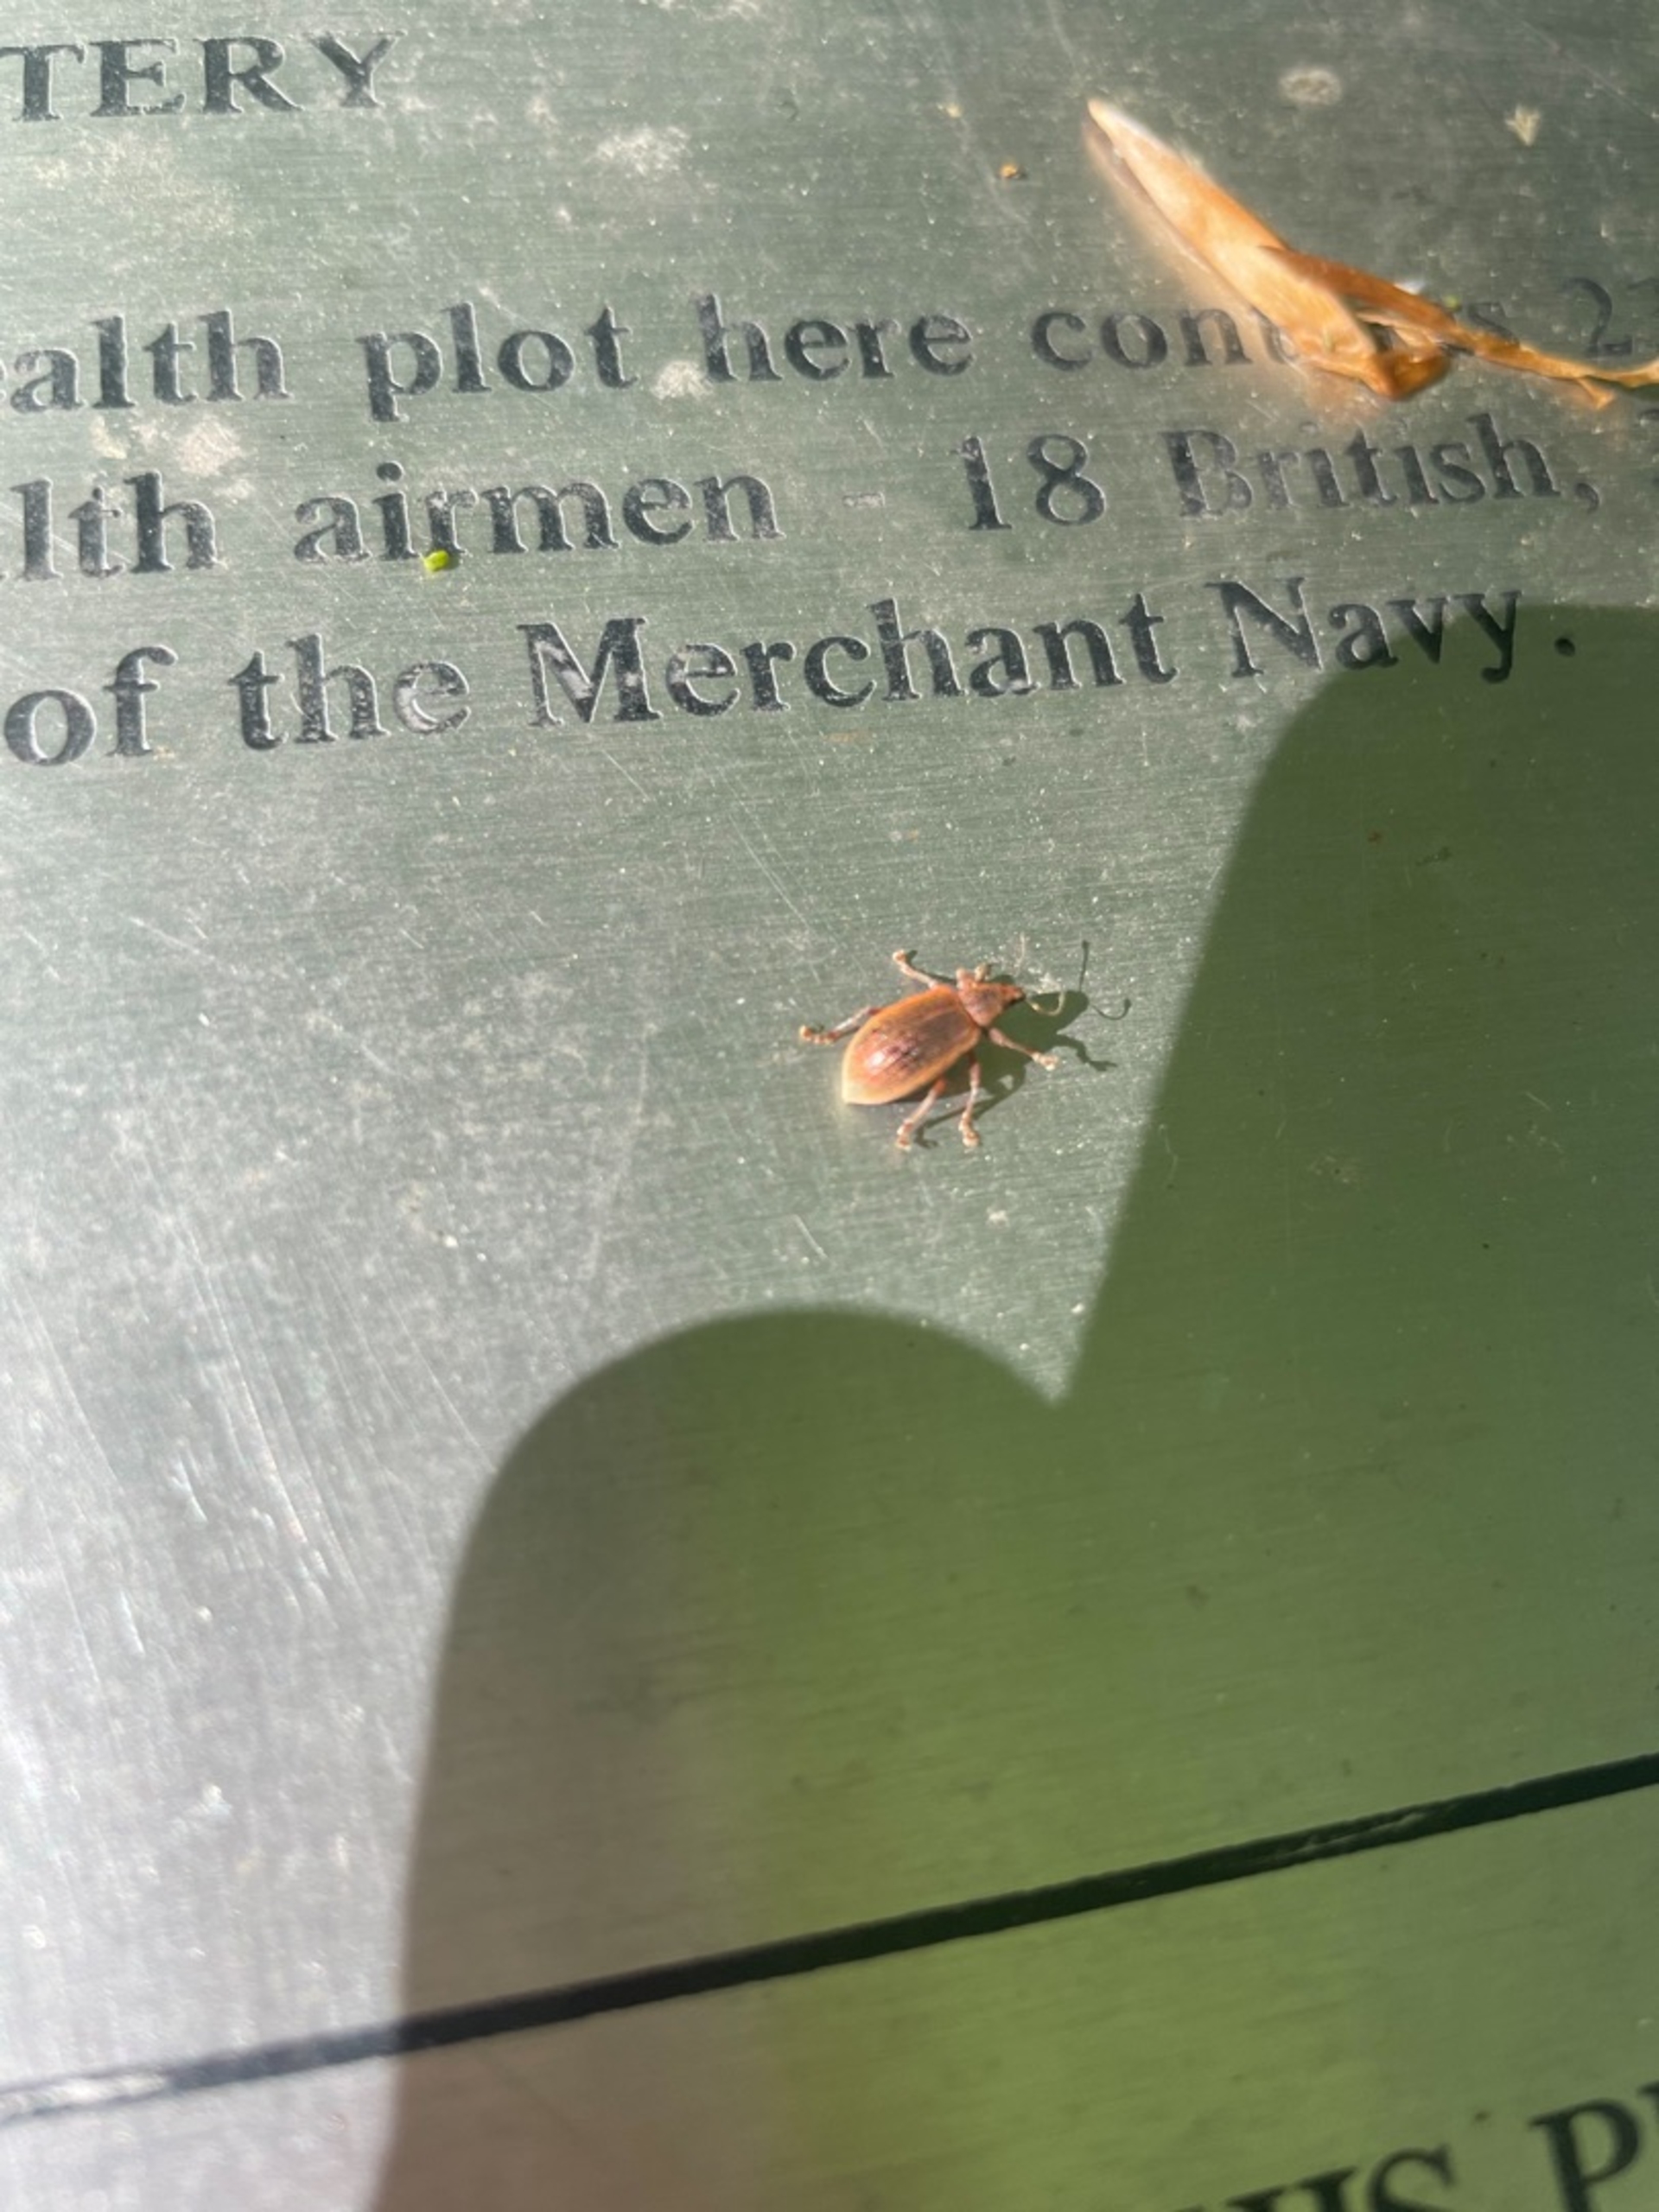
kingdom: Animalia
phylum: Arthropoda
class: Insecta
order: Coleoptera
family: Curculionidae
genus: Polydrusus
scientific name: Polydrusus mollis
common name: Blodsnudebille
